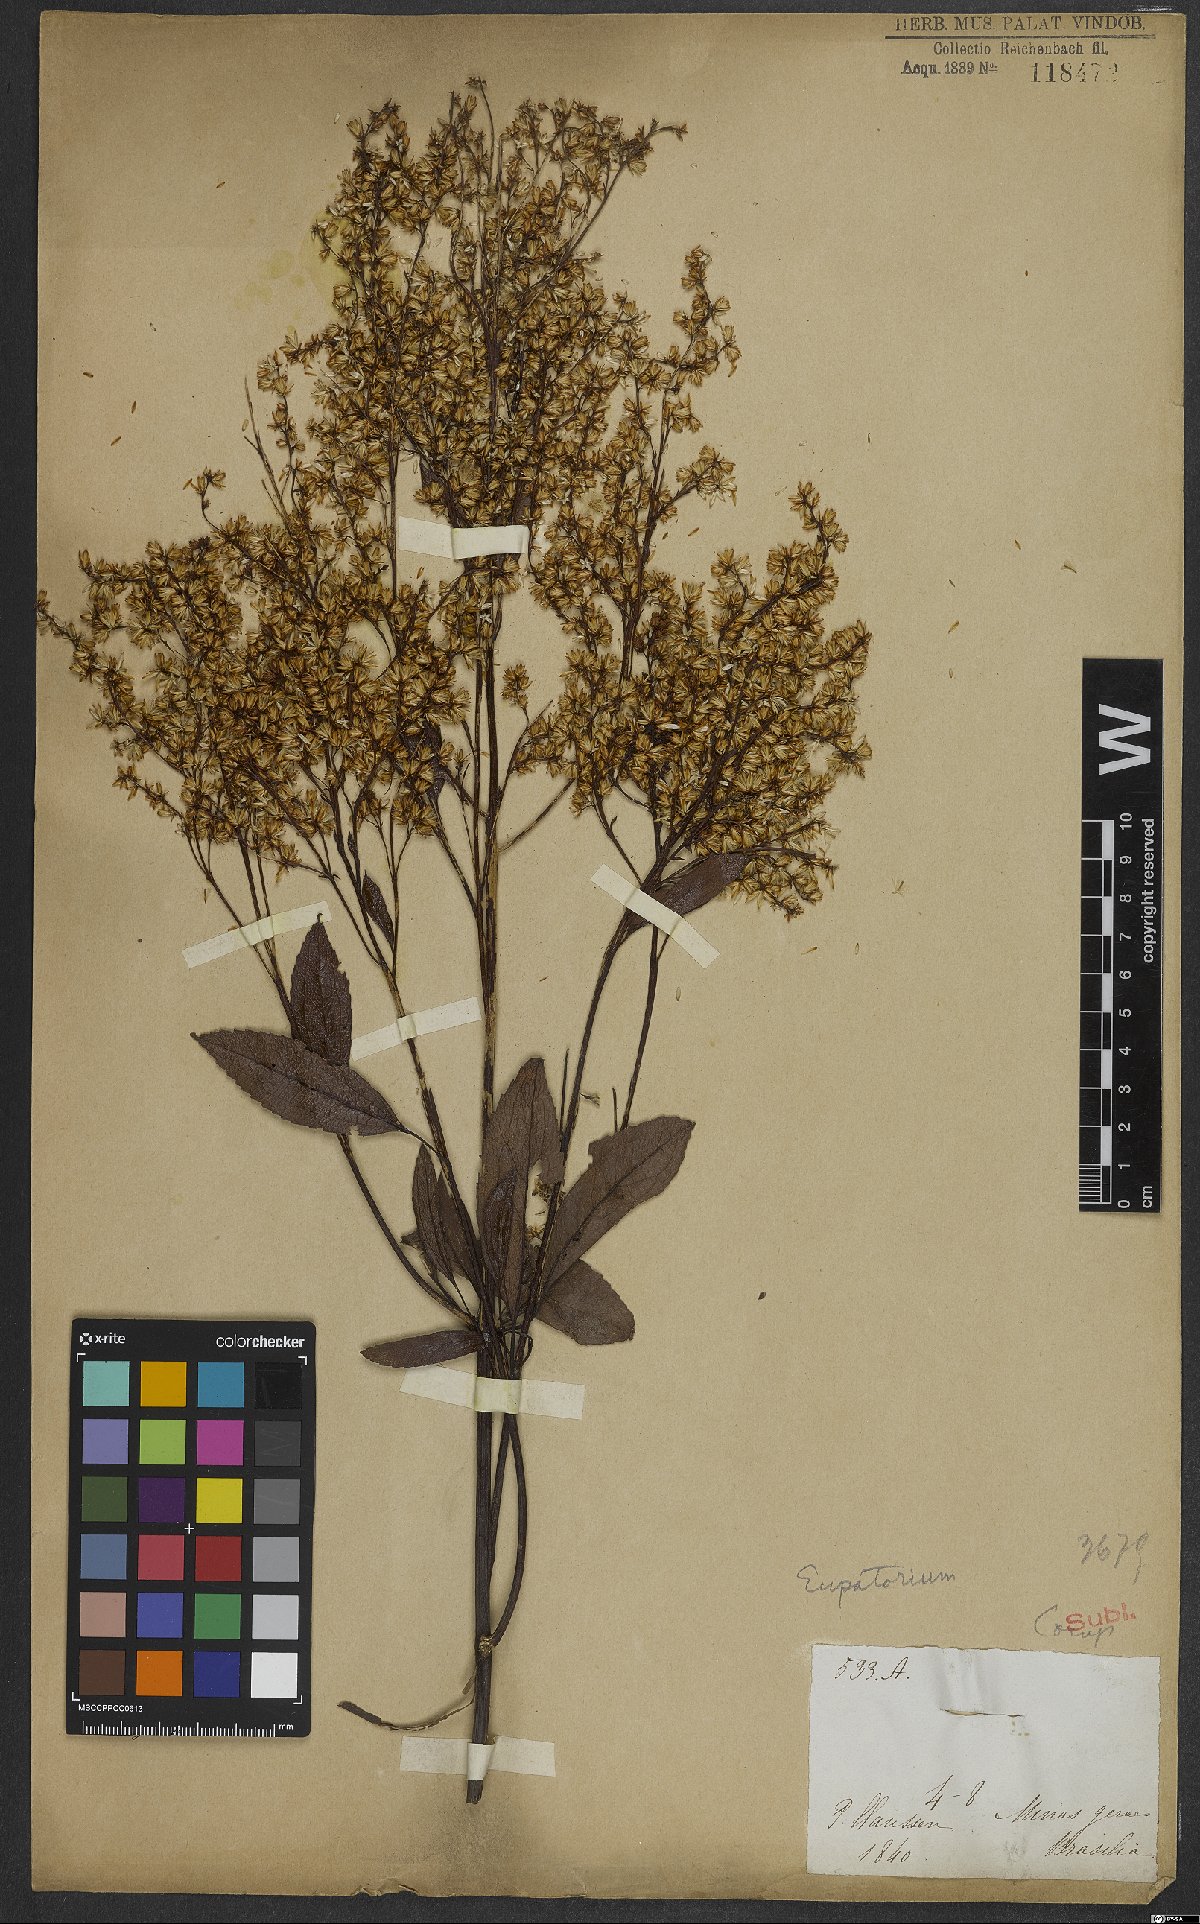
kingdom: Plantae
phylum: Tracheophyta
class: Magnoliopsida
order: Asterales
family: Asteraceae
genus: Eupatorium
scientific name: Eupatorium
